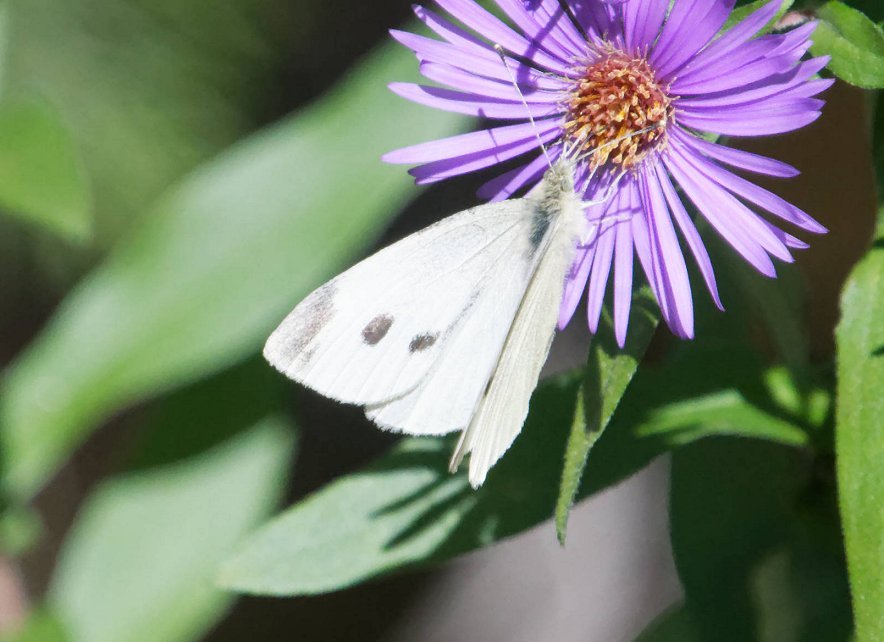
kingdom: Animalia
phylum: Arthropoda
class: Insecta
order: Lepidoptera
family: Pieridae
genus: Pieris
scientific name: Pieris rapae
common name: Cabbage White
